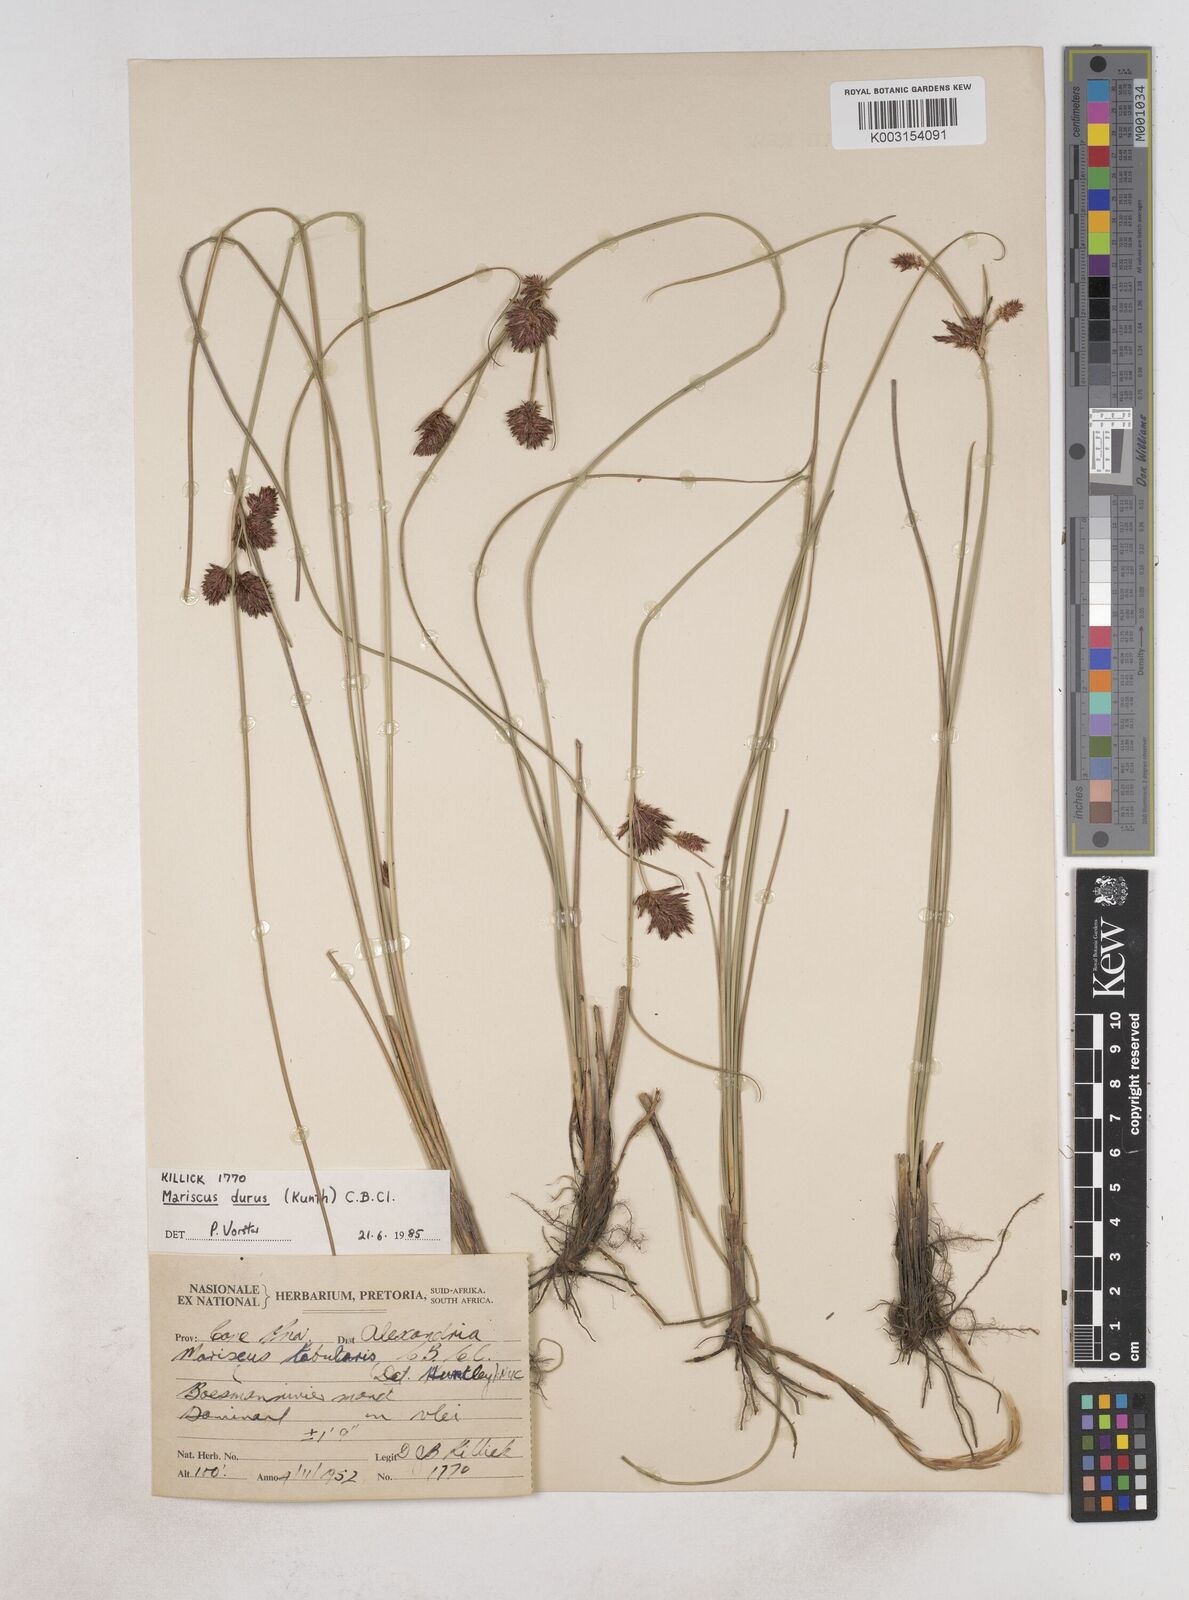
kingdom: Plantae
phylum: Tracheophyta
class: Liliopsida
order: Poales
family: Cyperaceae
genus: Cyperus
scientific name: Cyperus durus
